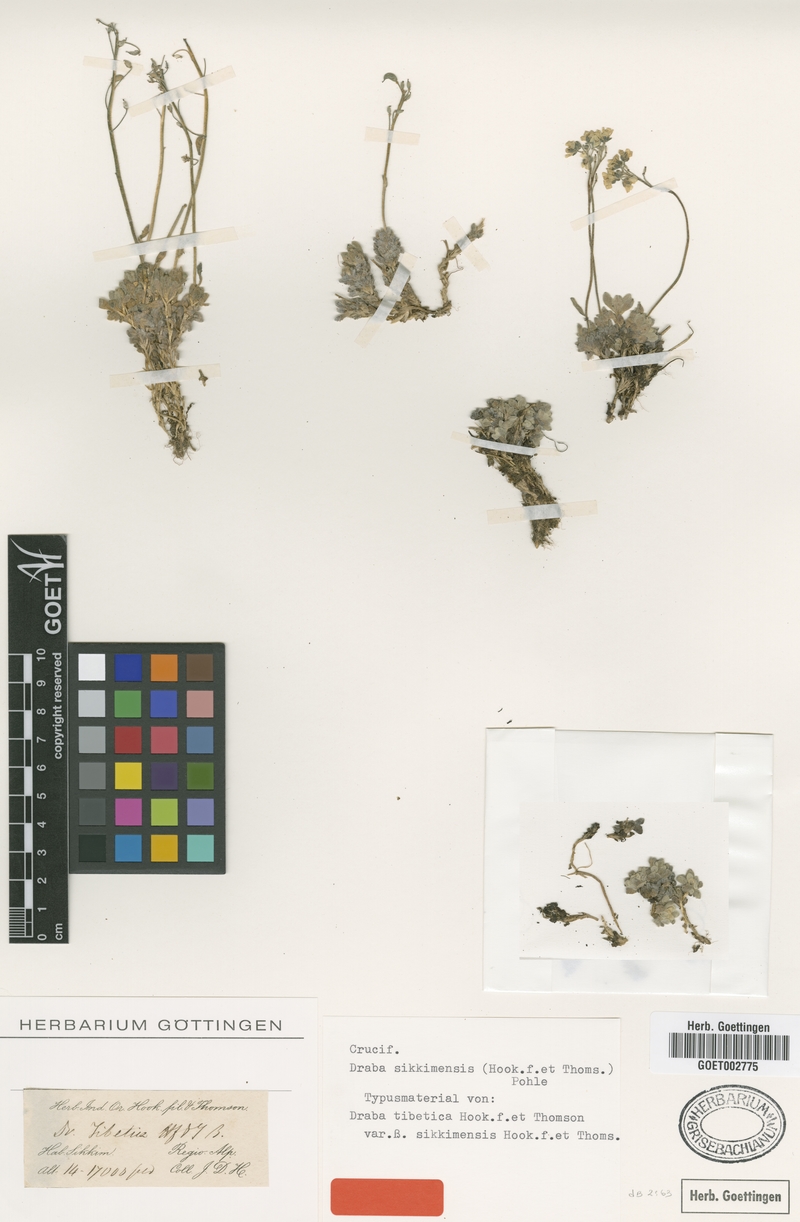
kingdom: Plantae
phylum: Tracheophyta
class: Magnoliopsida
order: Brassicales
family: Brassicaceae
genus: Draba
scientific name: Draba sikkimensis
